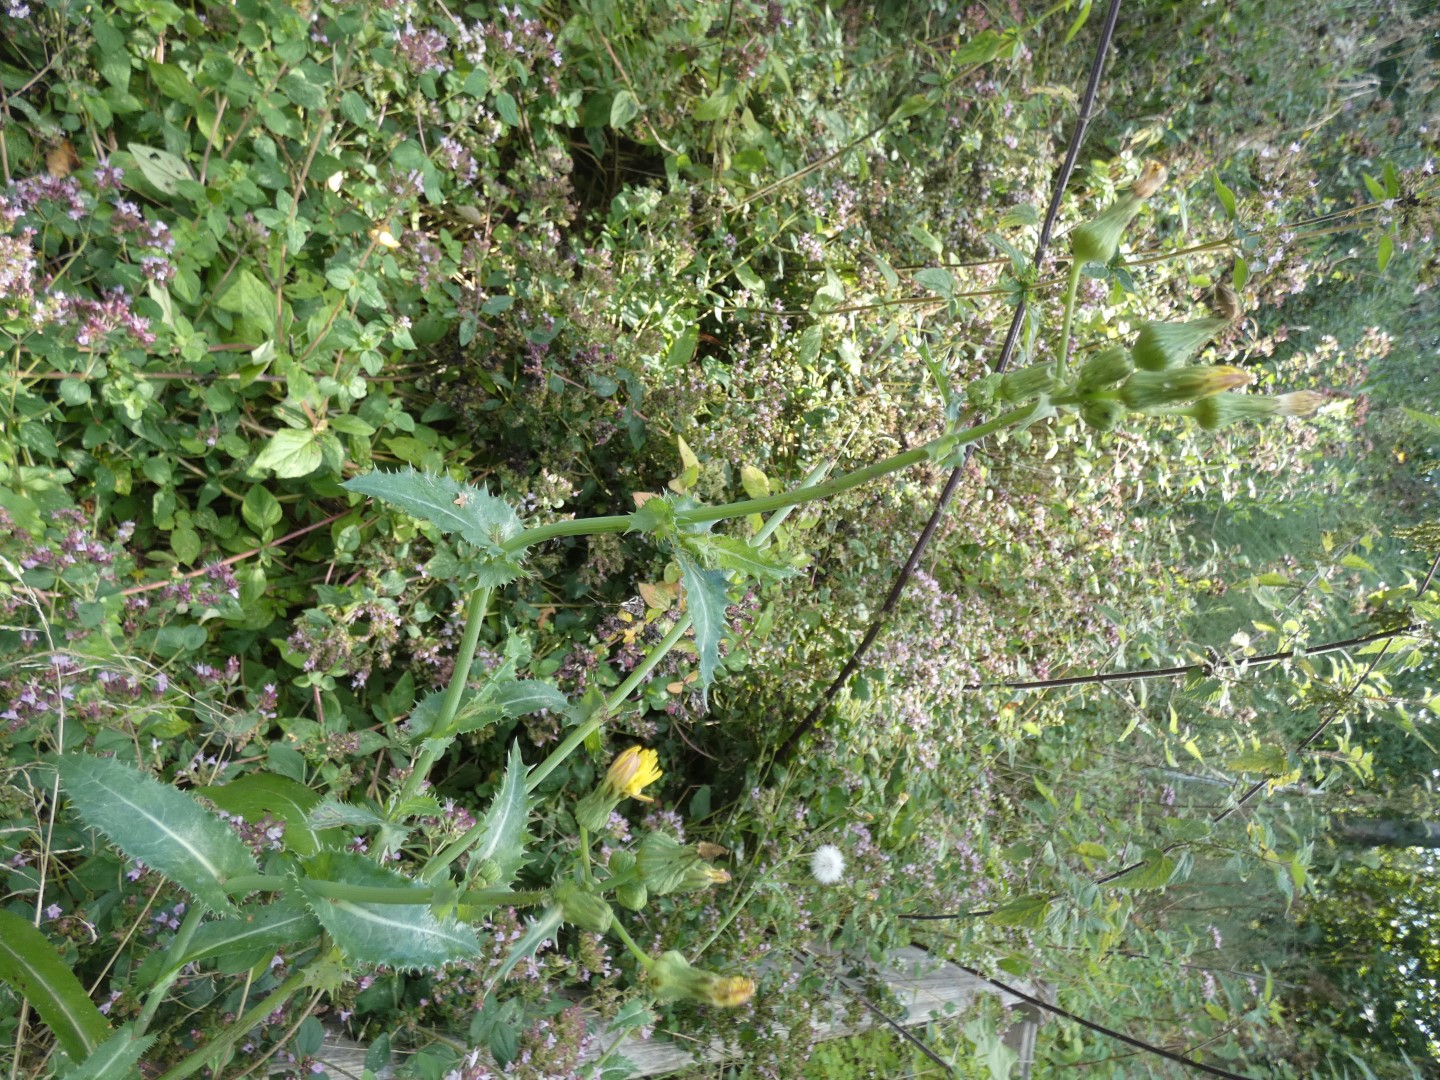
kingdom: Plantae
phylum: Tracheophyta
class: Magnoliopsida
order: Asterales
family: Asteraceae
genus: Sonchus
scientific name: Sonchus asper
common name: Ru svinemælk
